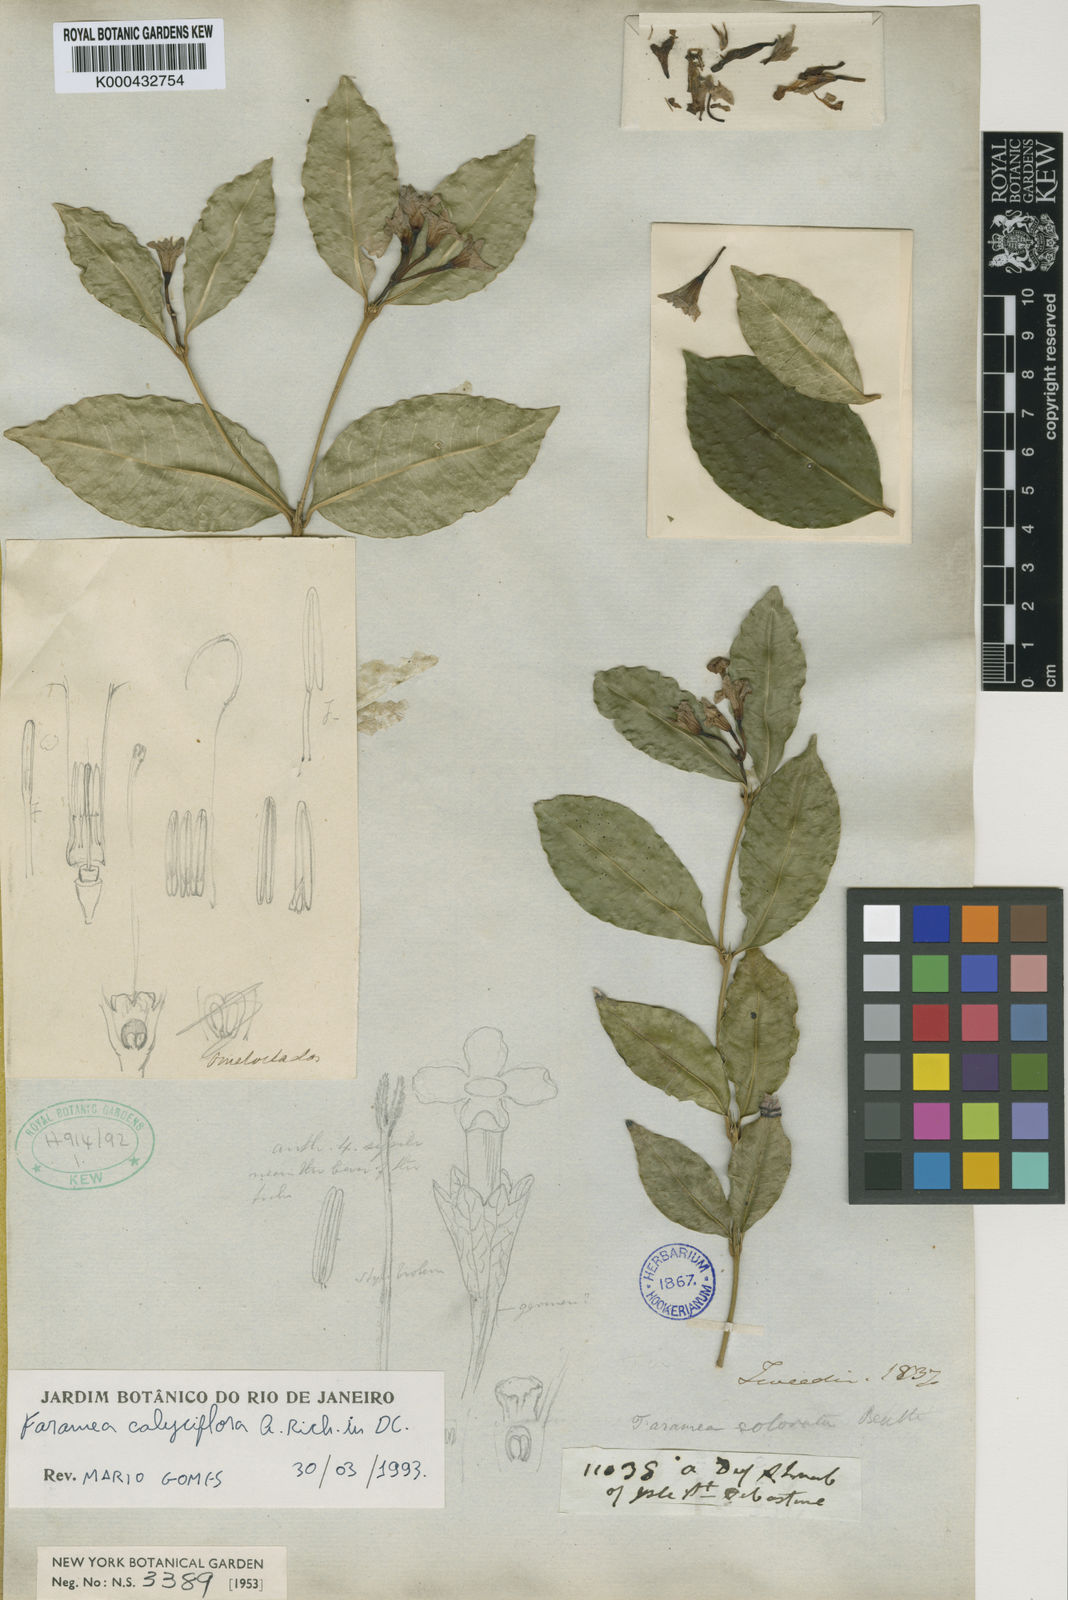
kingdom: Plantae
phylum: Tracheophyta
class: Magnoliopsida
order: Gentianales
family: Rubiaceae
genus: Faramea
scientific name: Faramea calyciflora
